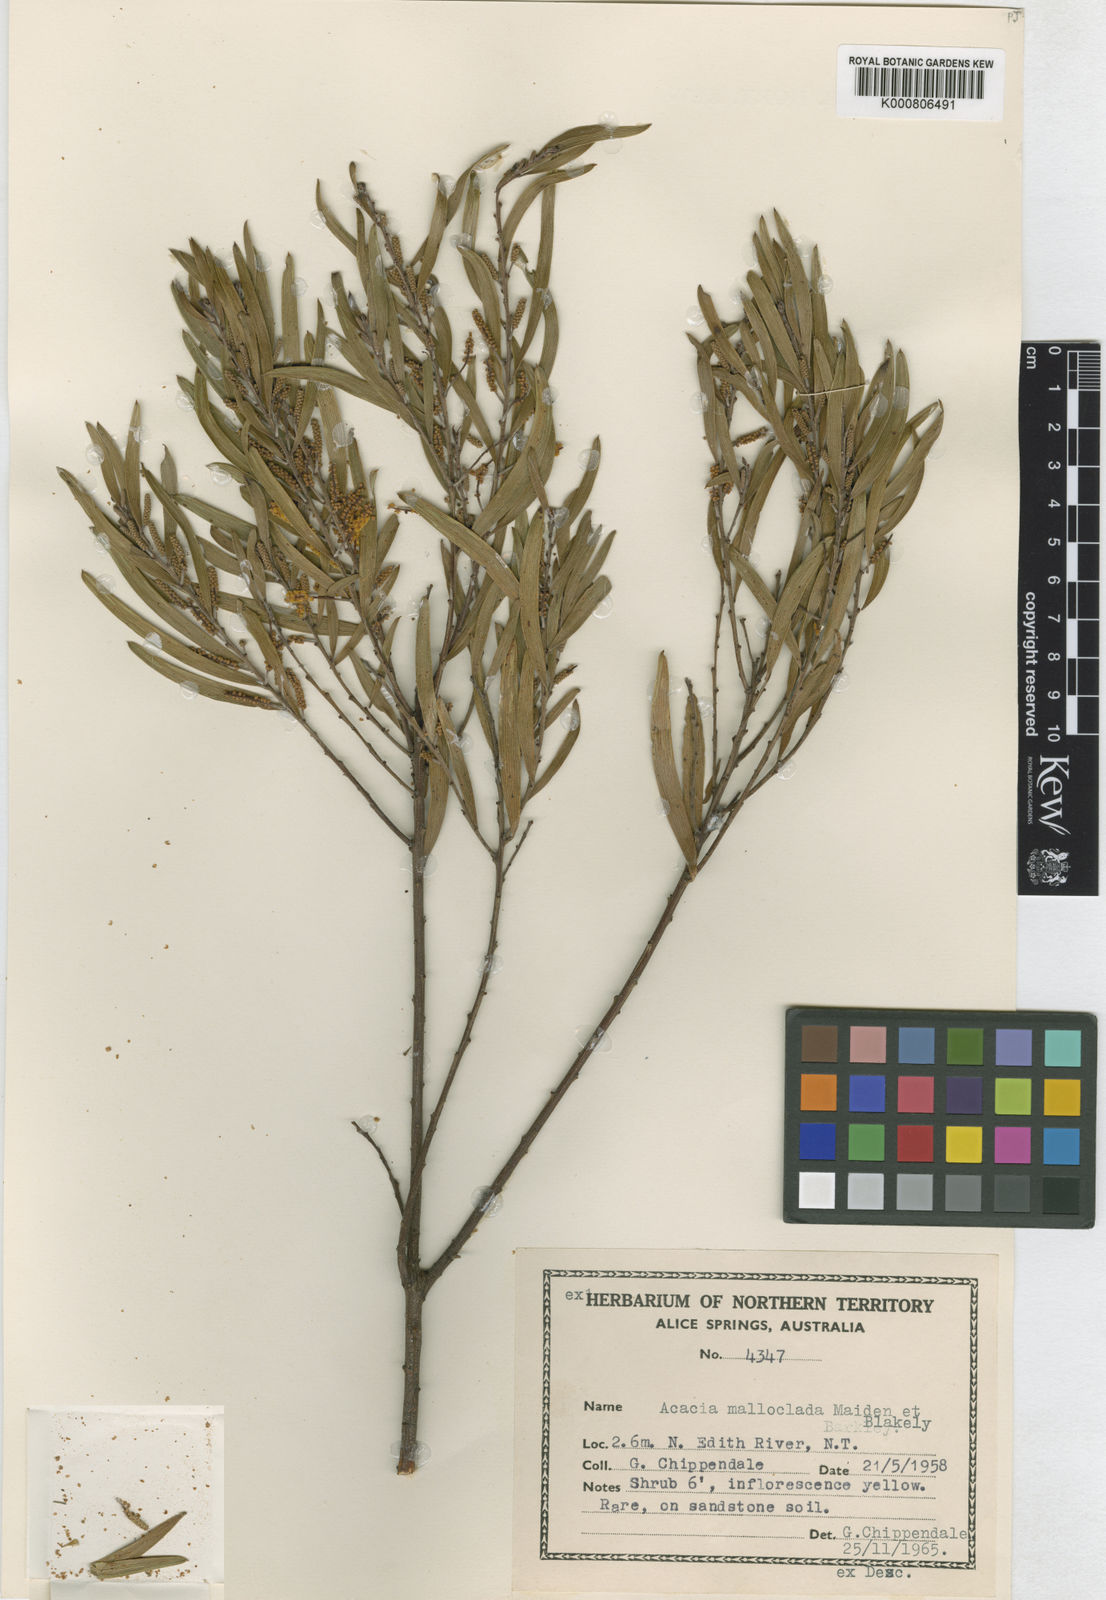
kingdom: Plantae
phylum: Tracheophyta
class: Magnoliopsida
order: Fabales
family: Fabaceae
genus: Acacia
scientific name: Acacia malloclada
